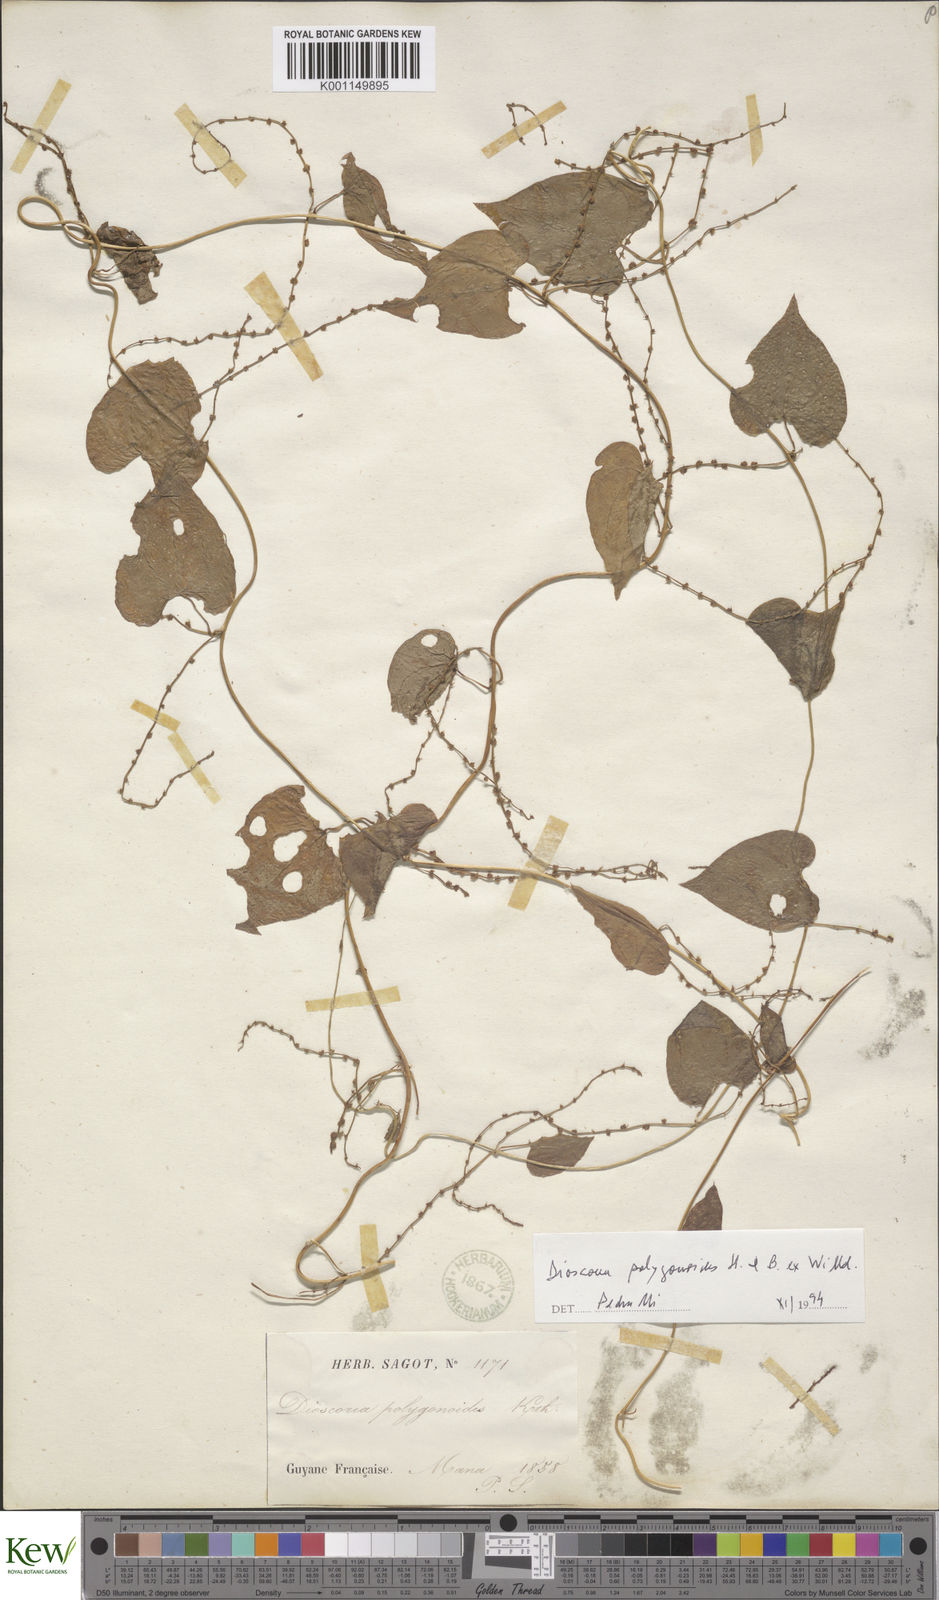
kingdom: Plantae
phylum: Tracheophyta
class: Liliopsida
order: Dioscoreales
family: Dioscoreaceae
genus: Dioscorea
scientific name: Dioscorea polygonoides
